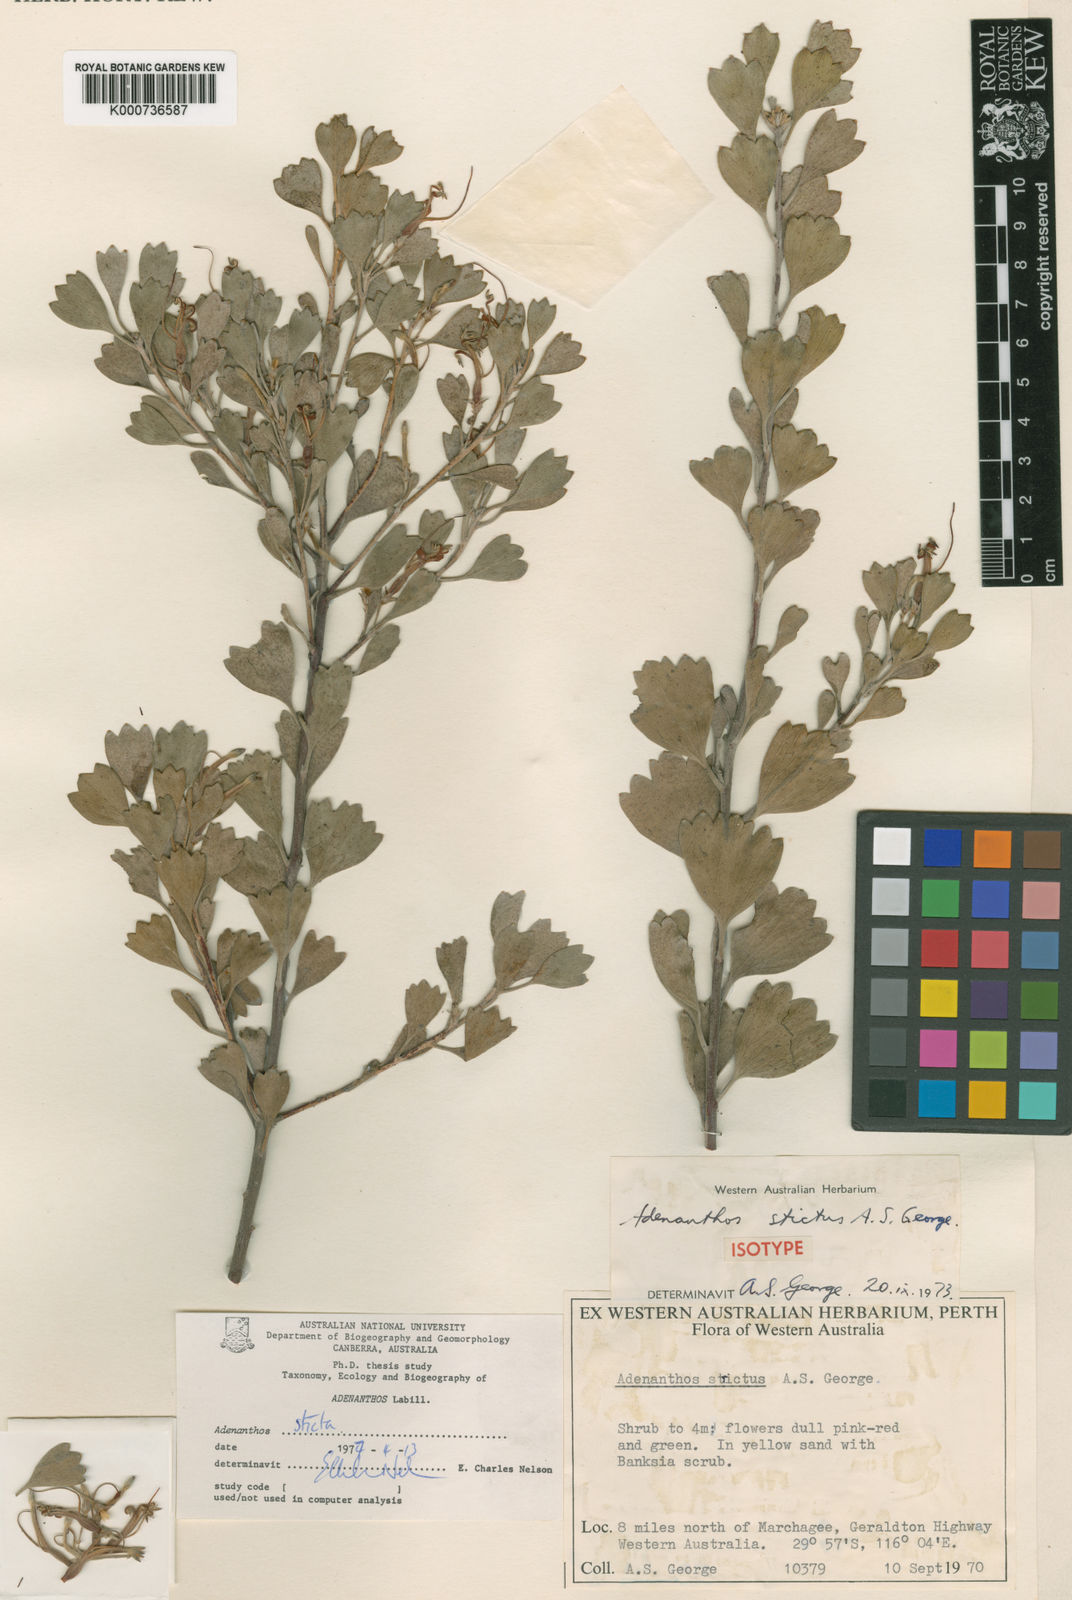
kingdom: Plantae
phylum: Tracheophyta
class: Magnoliopsida
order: Proteales
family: Proteaceae
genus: Adenanthos
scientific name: Adenanthos strictus
